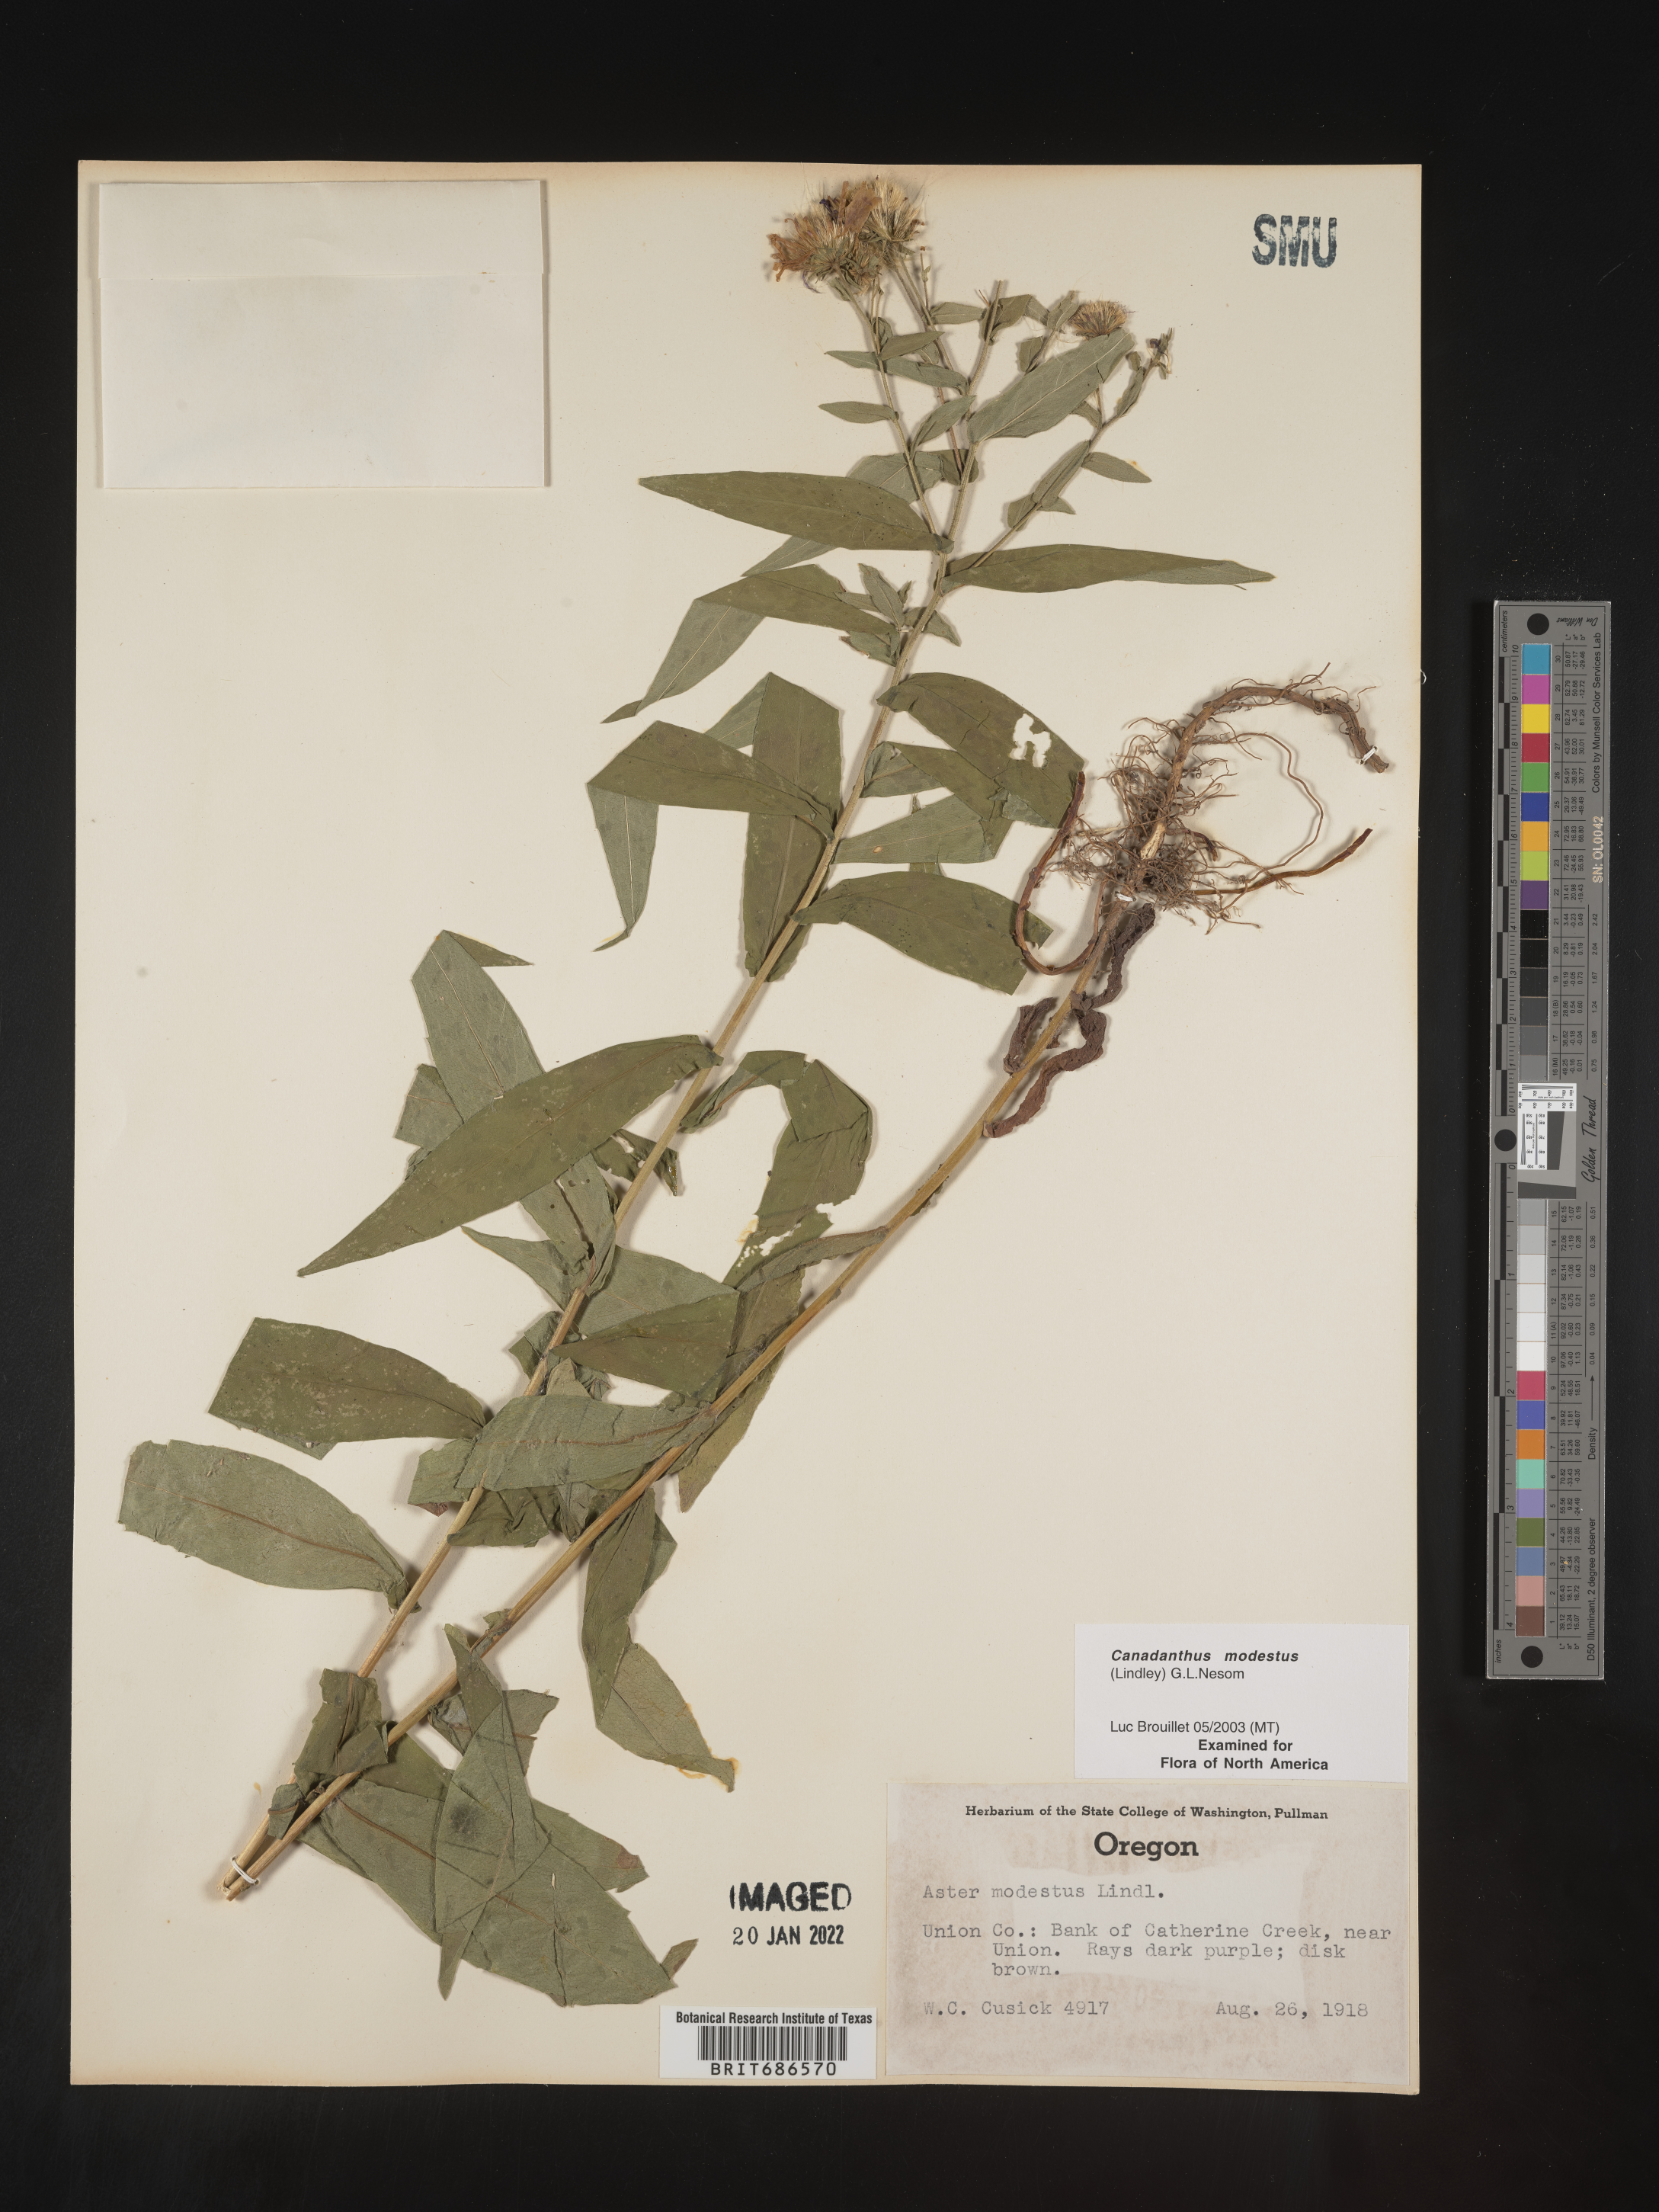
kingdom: Plantae
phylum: Tracheophyta
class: Magnoliopsida
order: Asterales
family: Asteraceae
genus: Canadanthus
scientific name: Canadanthus modestus
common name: Great northern aster
